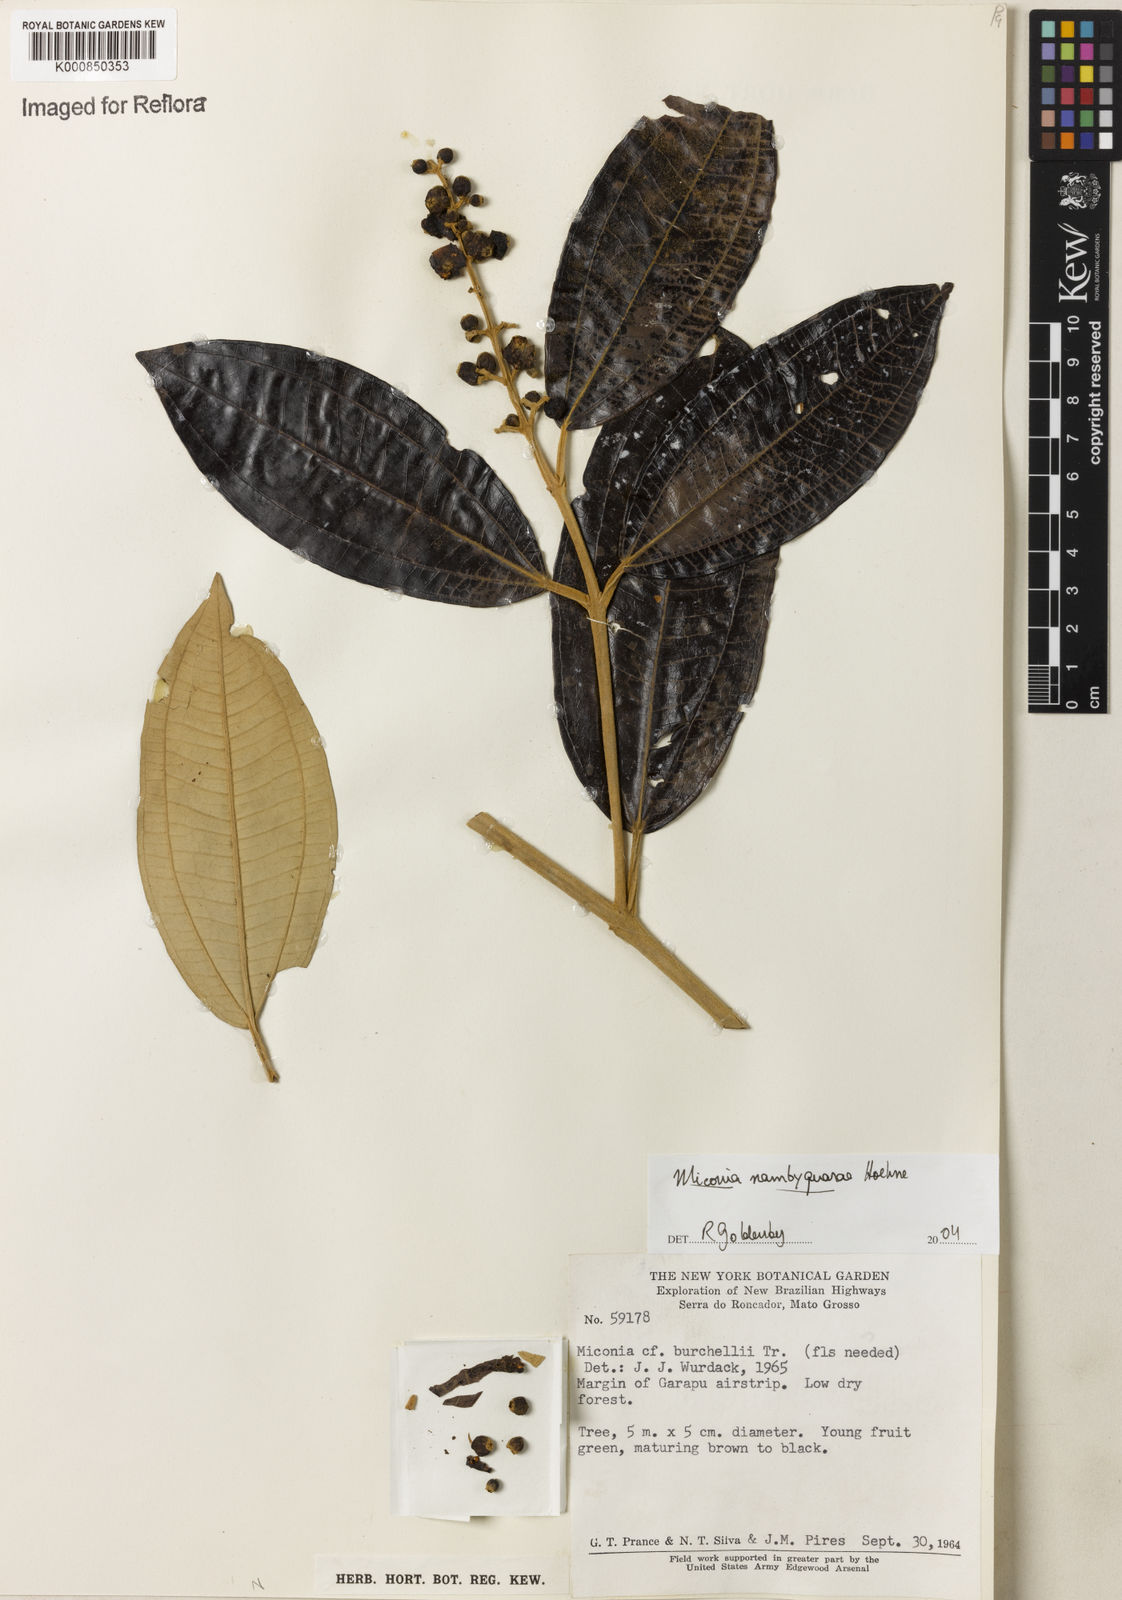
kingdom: Plantae
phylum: Tracheophyta
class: Magnoliopsida
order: Myrtales
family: Melastomataceae
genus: Miconia
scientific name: Miconia nambyquarae
